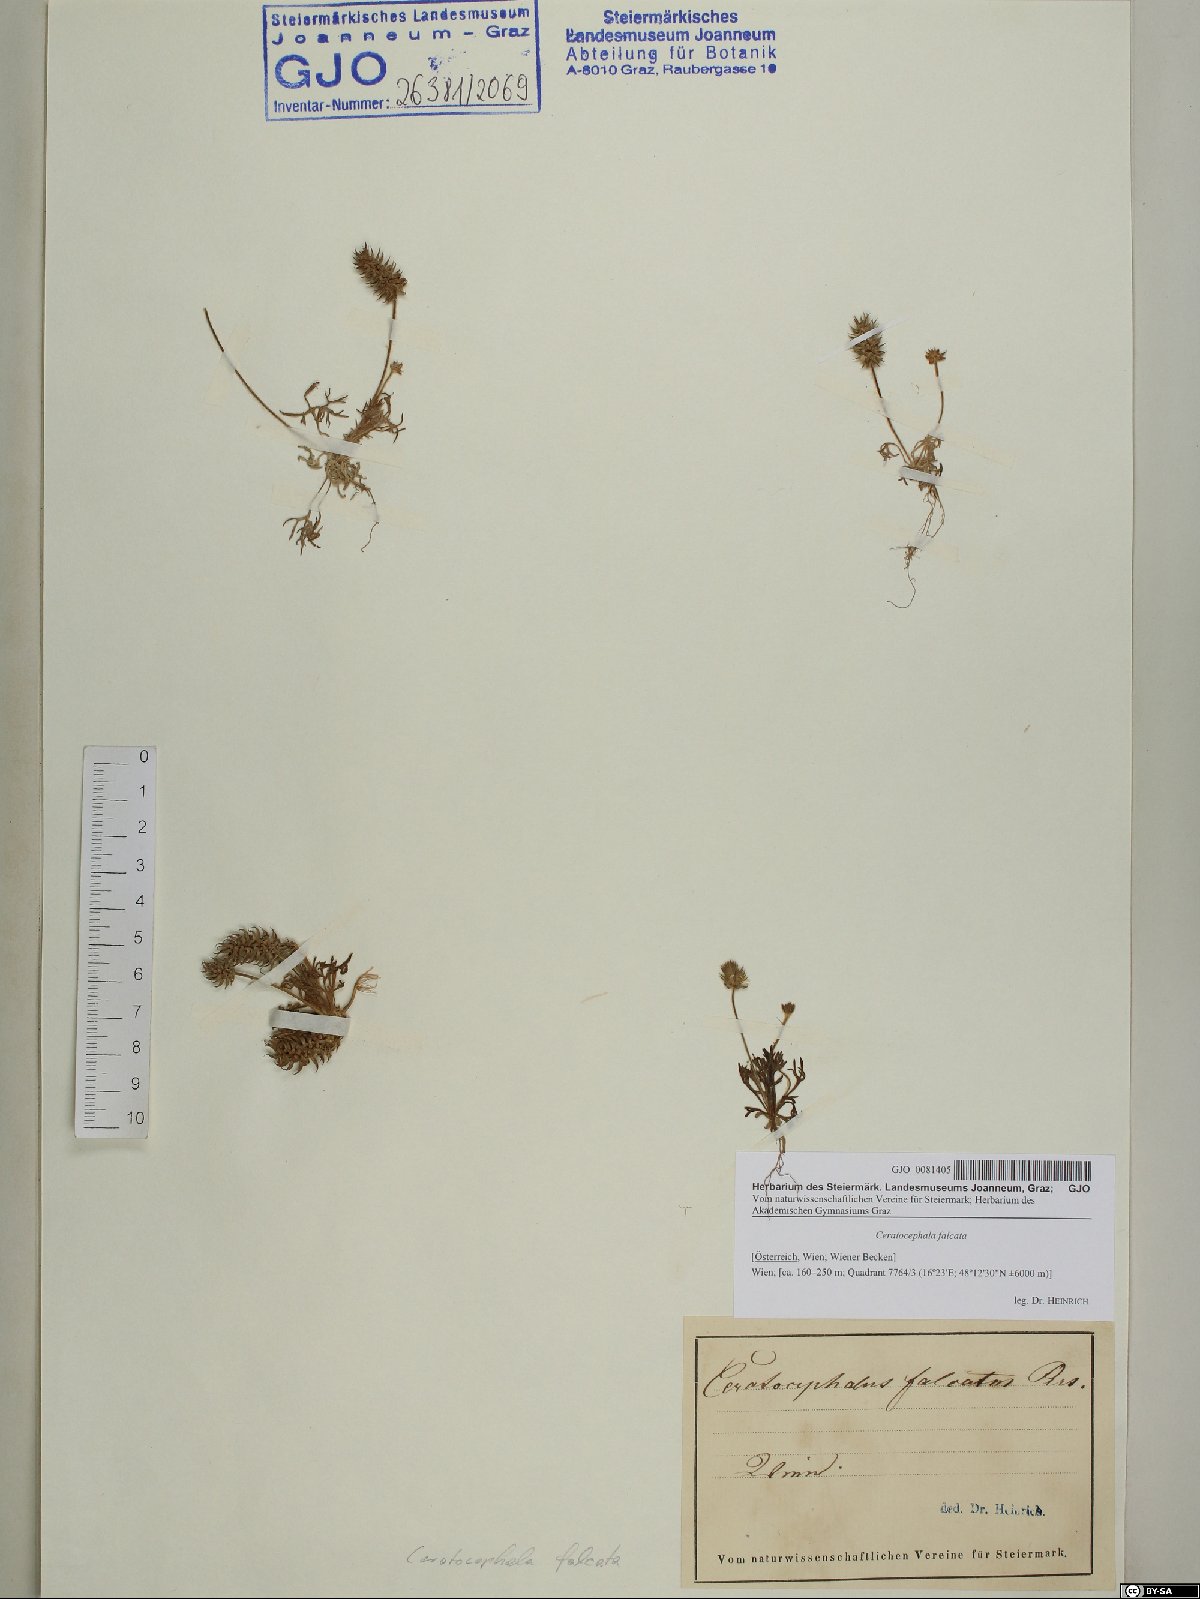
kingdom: Plantae
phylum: Tracheophyta
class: Magnoliopsida
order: Ranunculales
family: Ranunculaceae
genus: Ceratocephala
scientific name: Ceratocephala falcata
